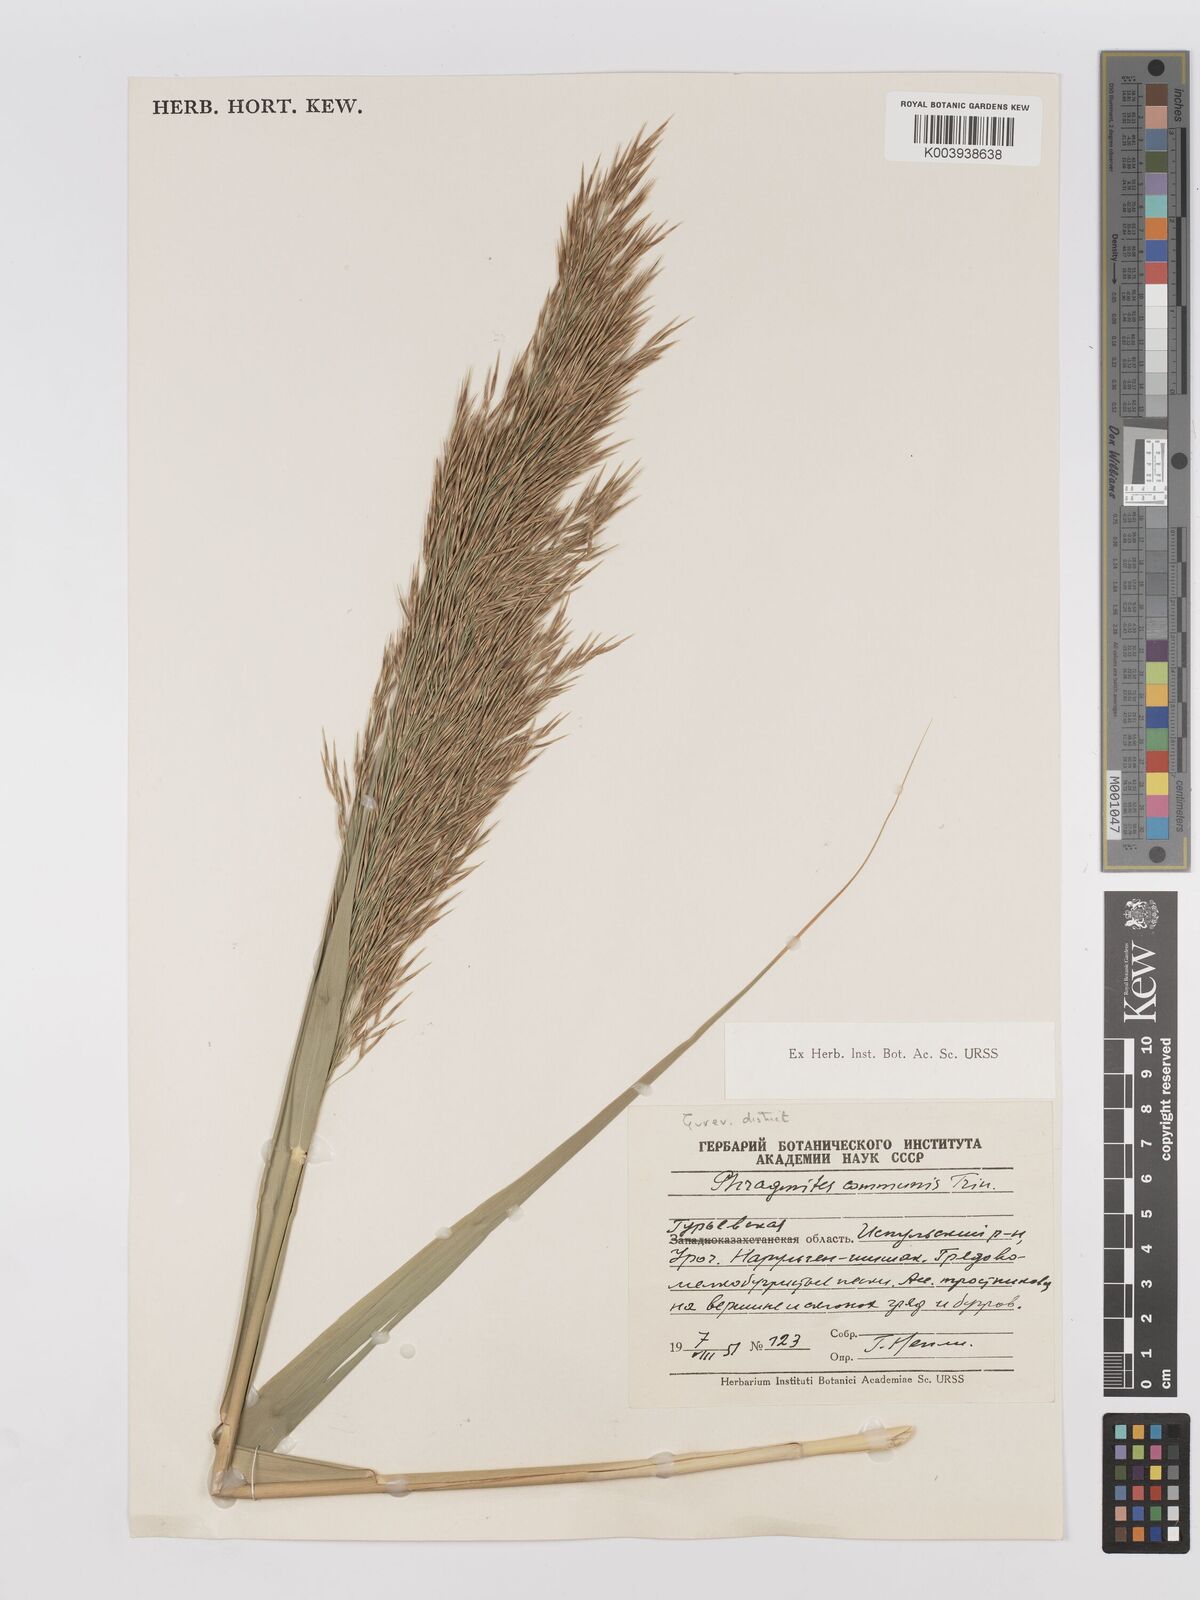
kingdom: Plantae
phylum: Tracheophyta
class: Liliopsida
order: Poales
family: Poaceae
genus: Phragmites
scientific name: Phragmites australis
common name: Common reed
